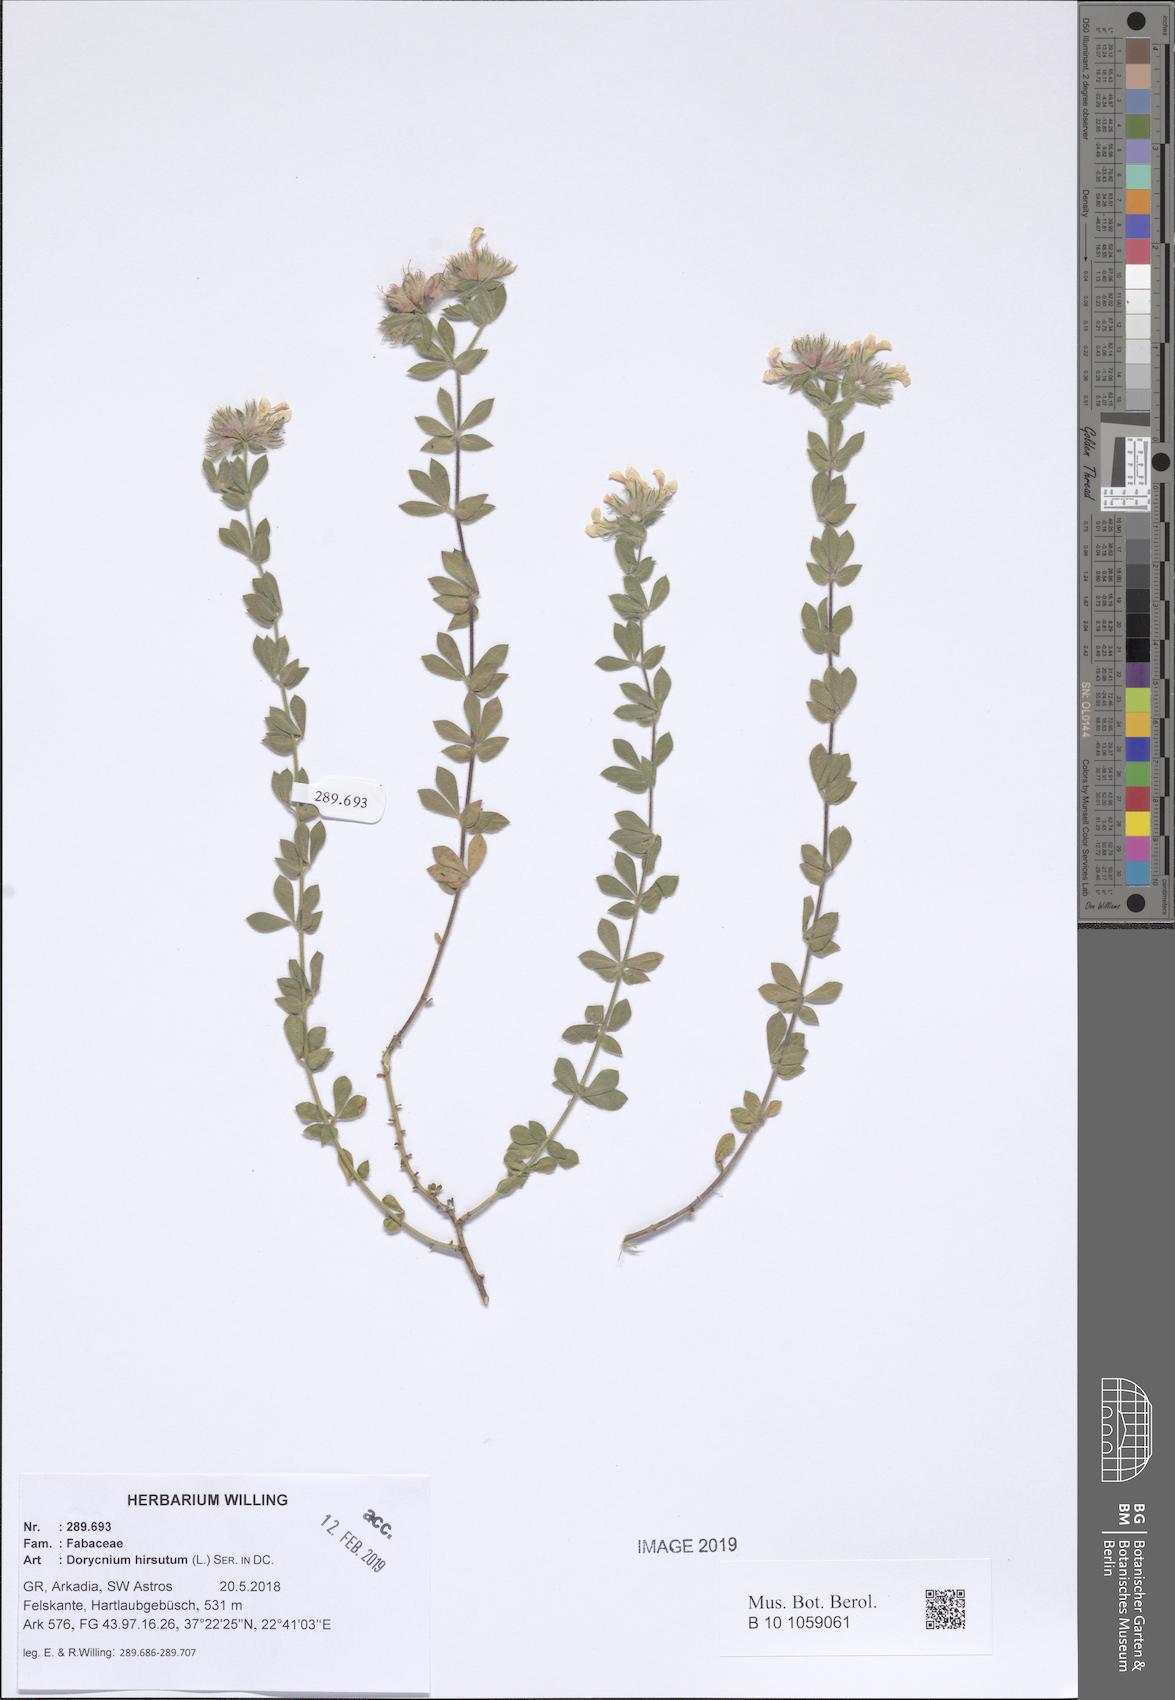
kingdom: Plantae
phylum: Tracheophyta
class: Magnoliopsida
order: Fabales
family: Fabaceae
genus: Lotus
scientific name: Lotus hirsutus
